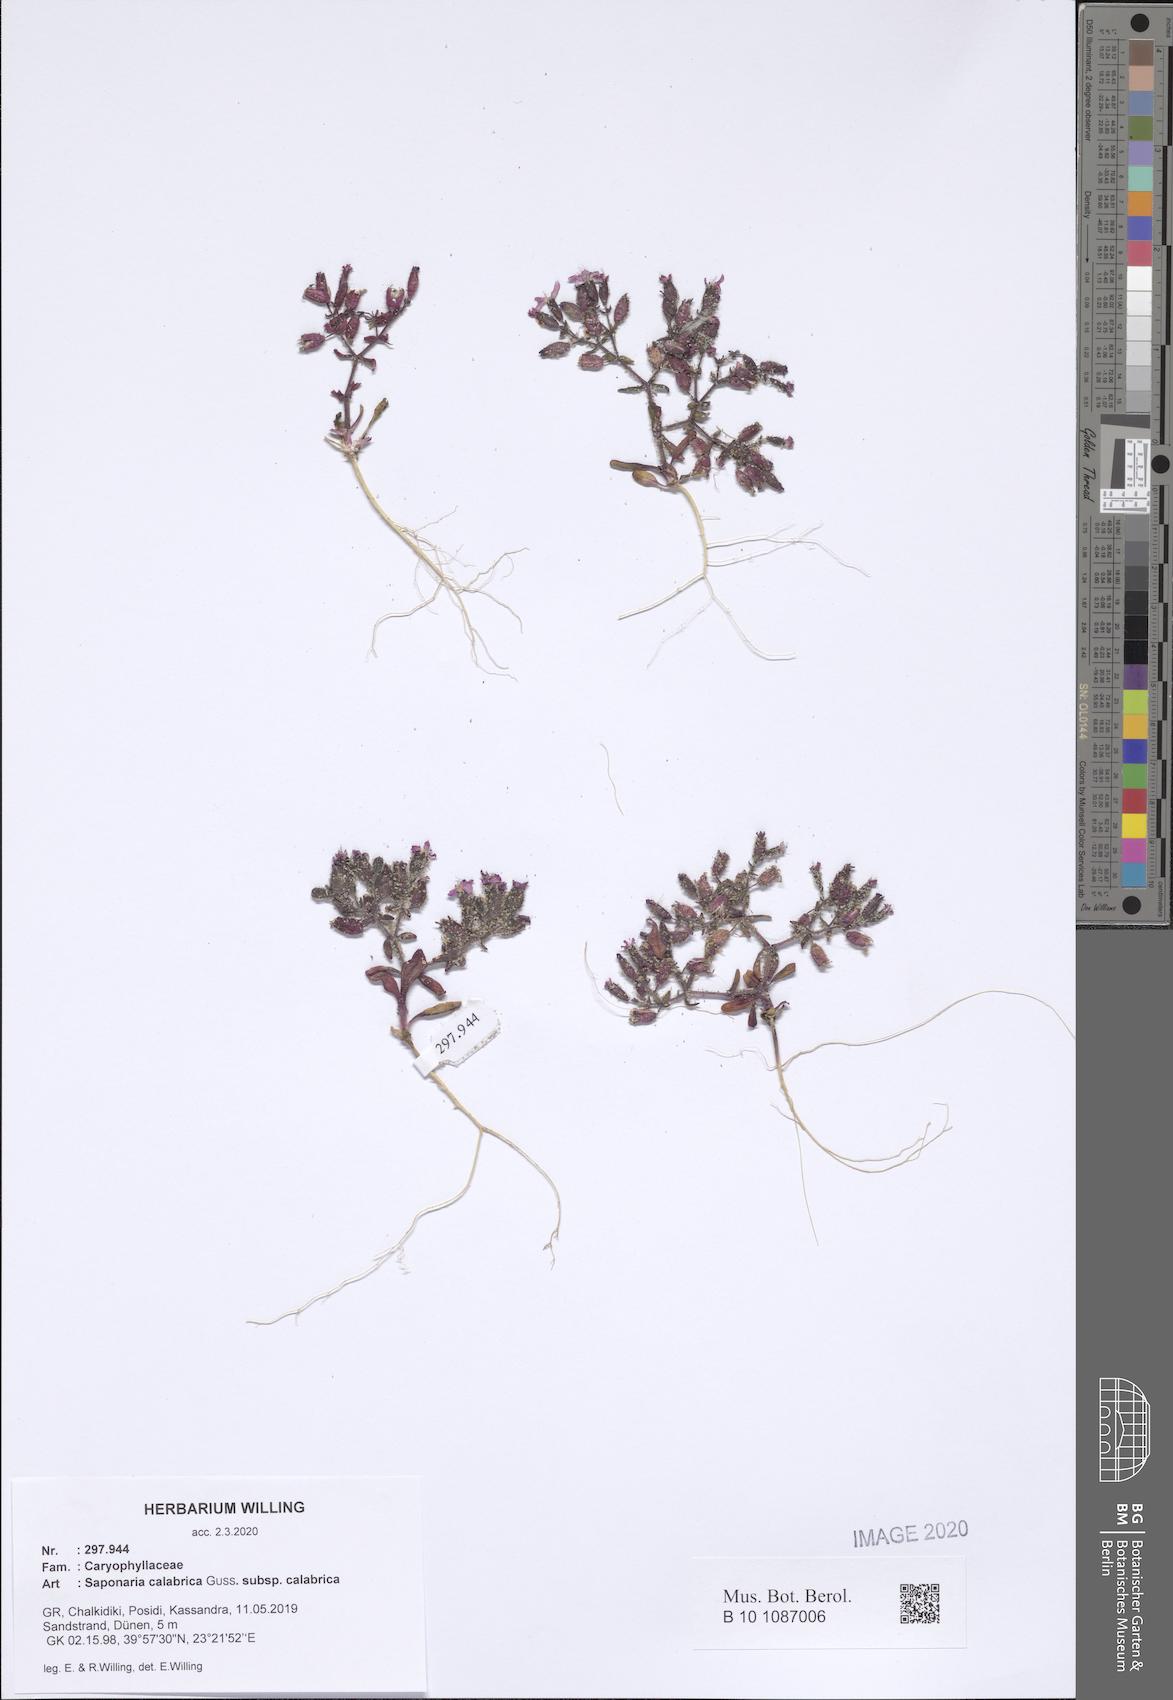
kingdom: Plantae
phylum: Tracheophyta
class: Magnoliopsida
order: Caryophyllales
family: Caryophyllaceae
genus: Saponaria
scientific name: Saponaria calabrica
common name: Adriatic soapwort
